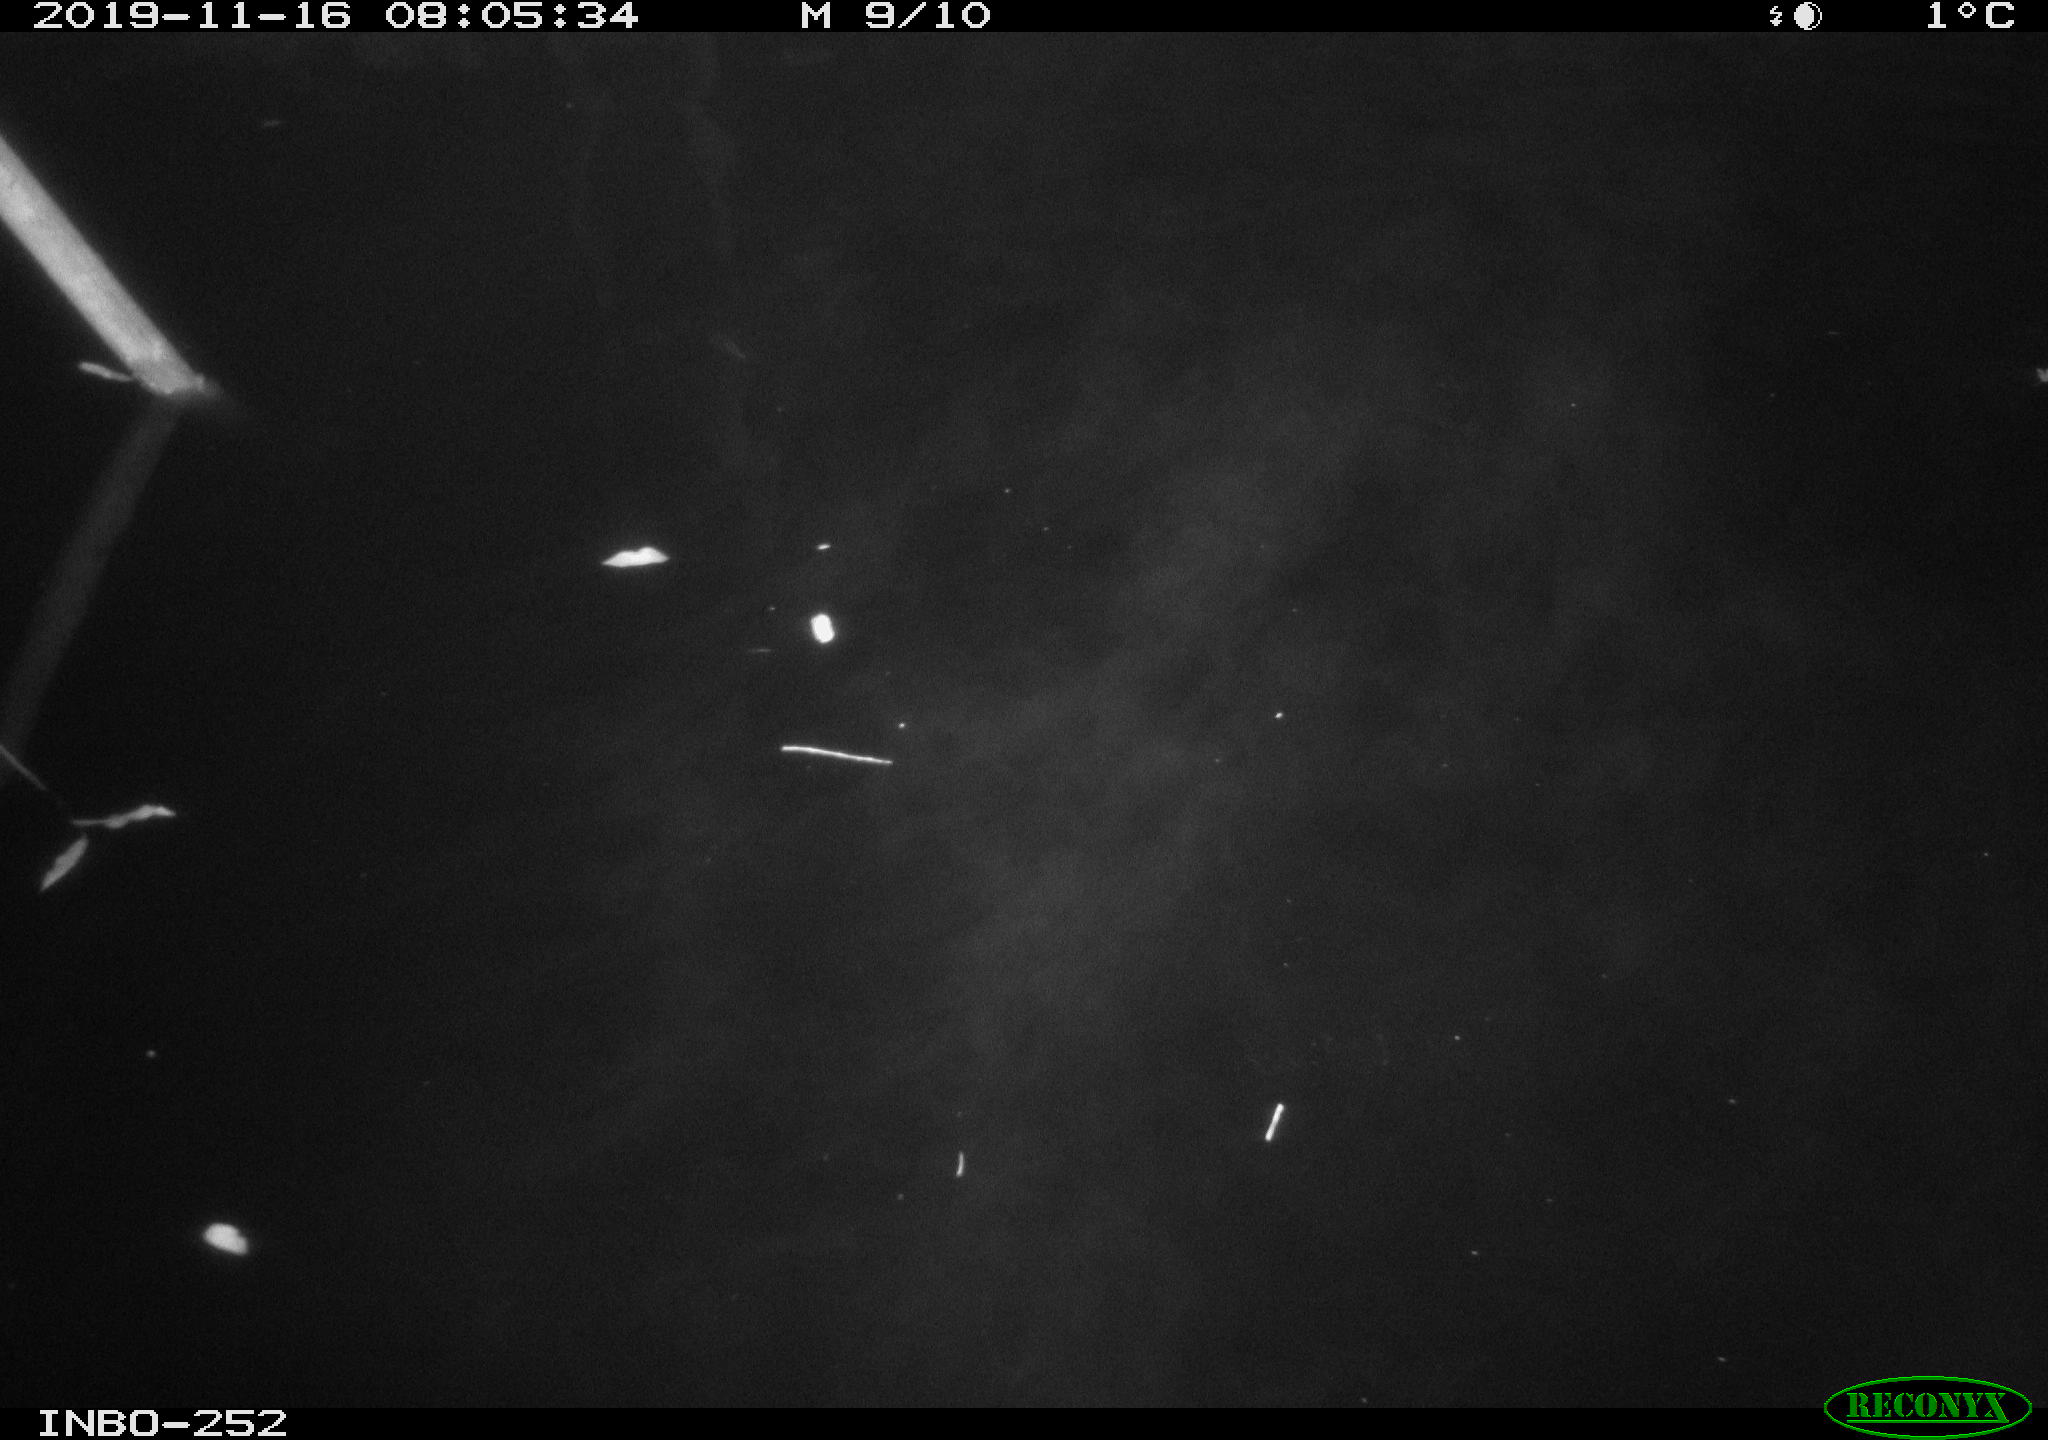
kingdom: Animalia
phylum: Chordata
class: Aves
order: Anseriformes
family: Anatidae
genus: Anas
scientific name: Anas platyrhynchos
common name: Mallard
